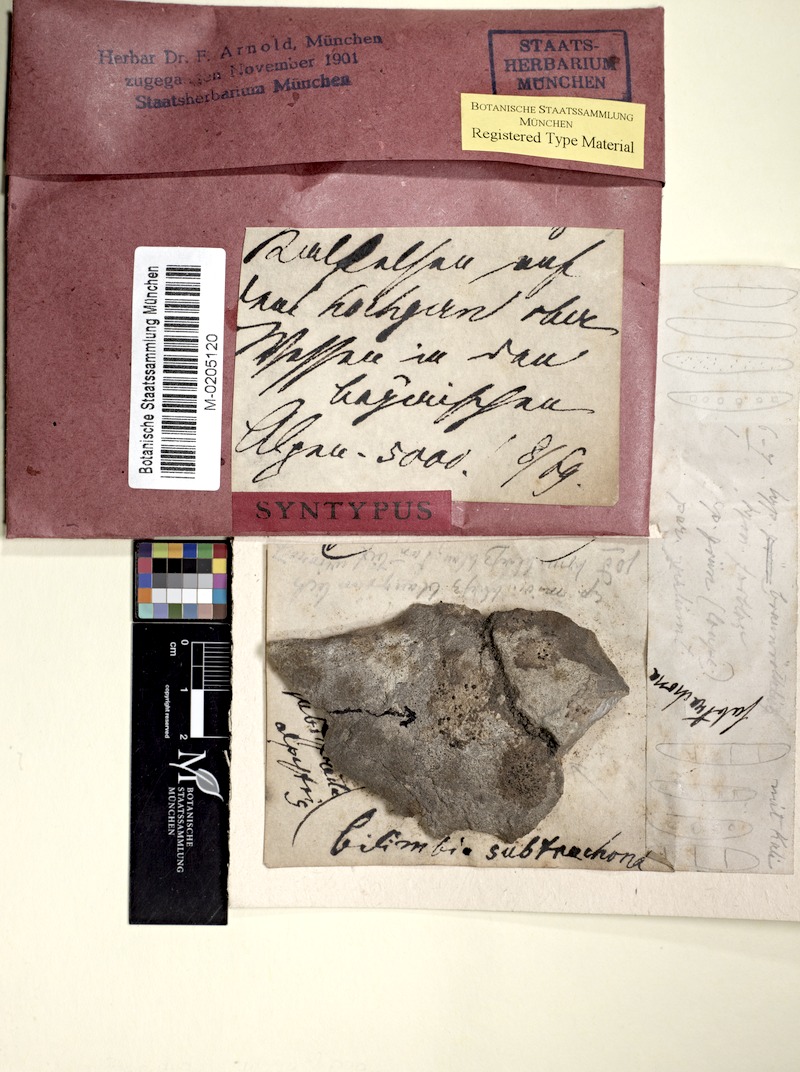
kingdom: Fungi
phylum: Ascomycota
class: Lecanoromycetes
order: Lecanorales
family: Ramalinaceae
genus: Toniniopsis
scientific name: Toniniopsis coprodes
